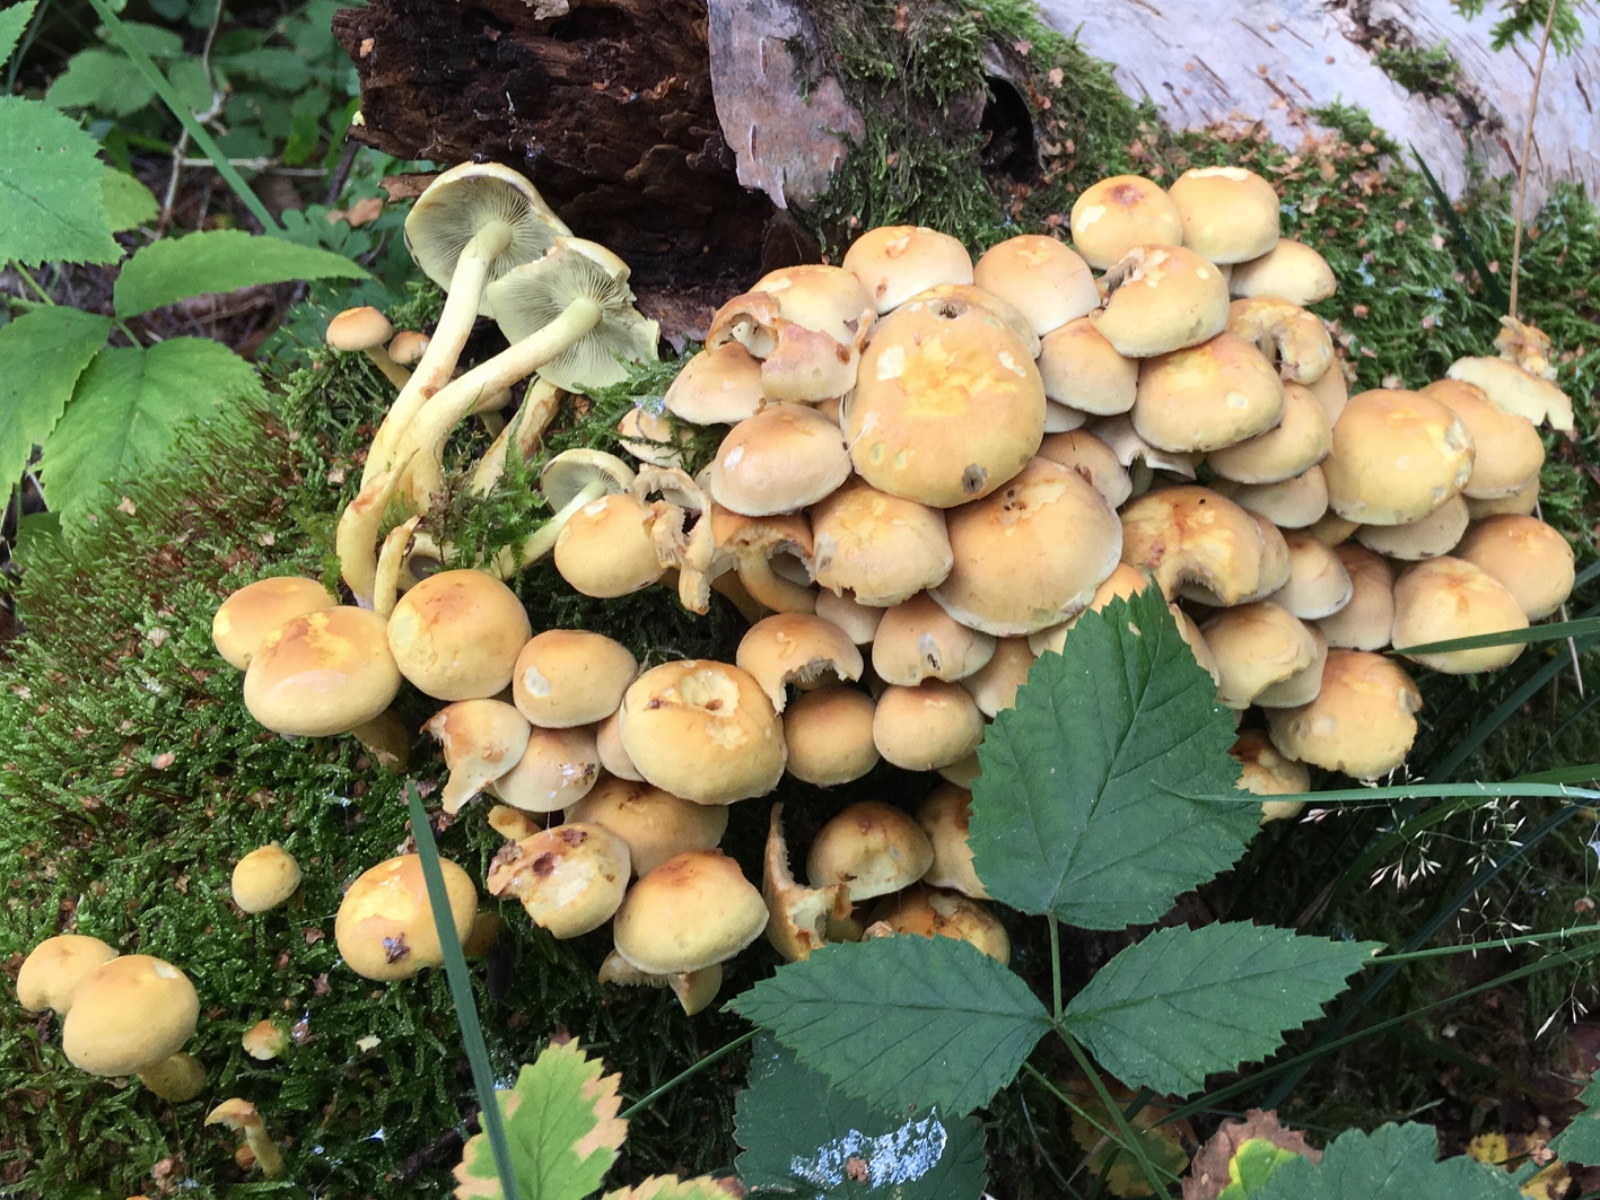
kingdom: Fungi
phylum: Basidiomycota
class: Agaricomycetes
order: Agaricales
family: Strophariaceae
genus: Hypholoma
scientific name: Hypholoma fasciculare
